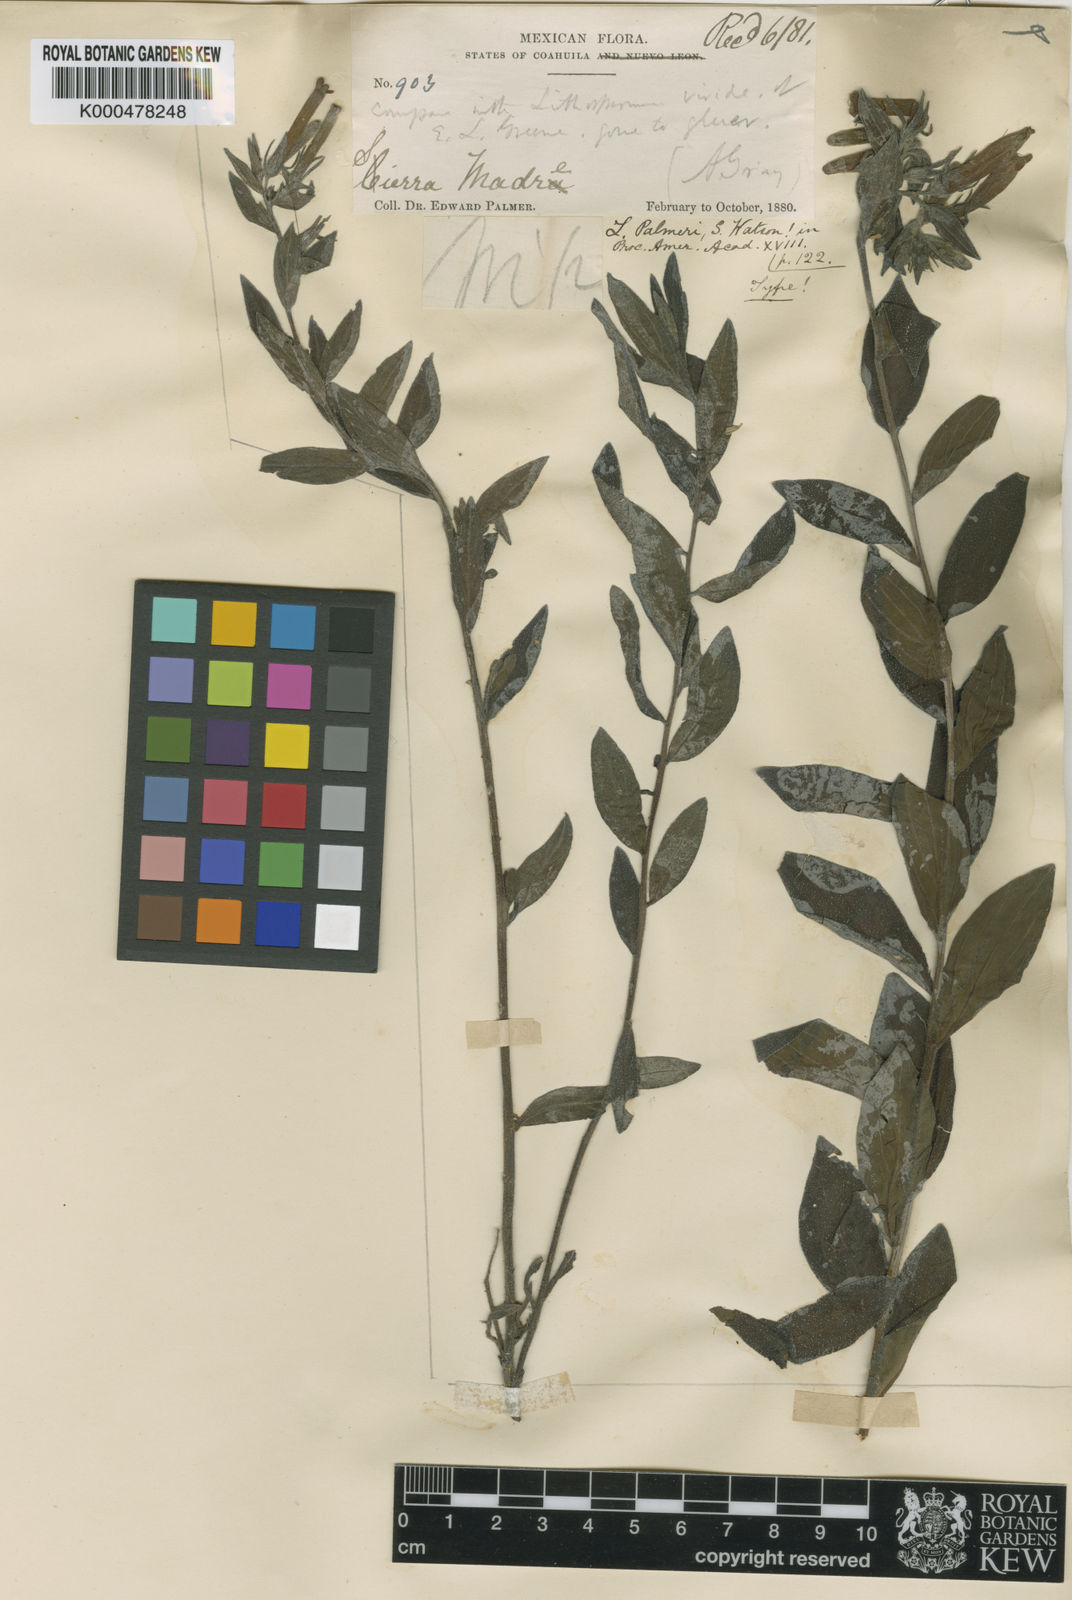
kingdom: Plantae
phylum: Tracheophyta
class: Magnoliopsida
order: Boraginales
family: Boraginaceae
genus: Lithospermum
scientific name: Lithospermum viride
